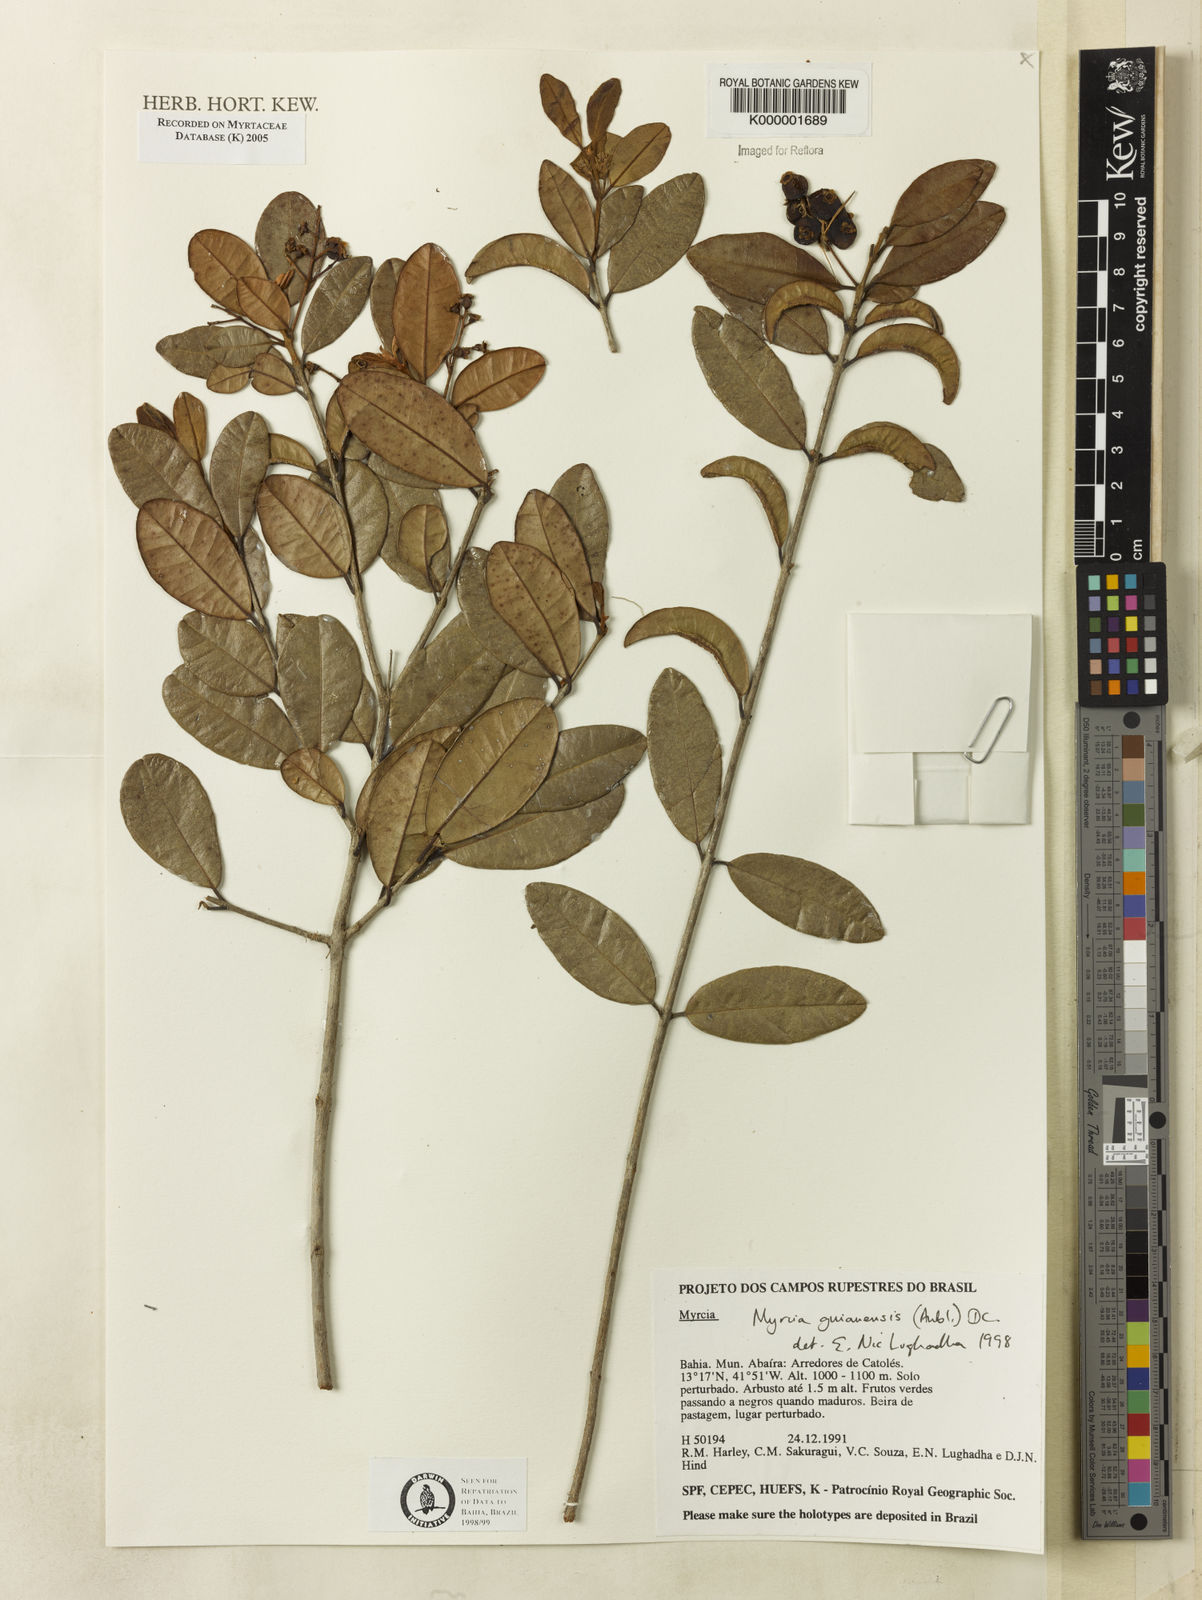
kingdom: Plantae
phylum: Tracheophyta
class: Magnoliopsida
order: Myrtales
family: Myrtaceae
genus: Myrcia
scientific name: Myrcia guianensis
